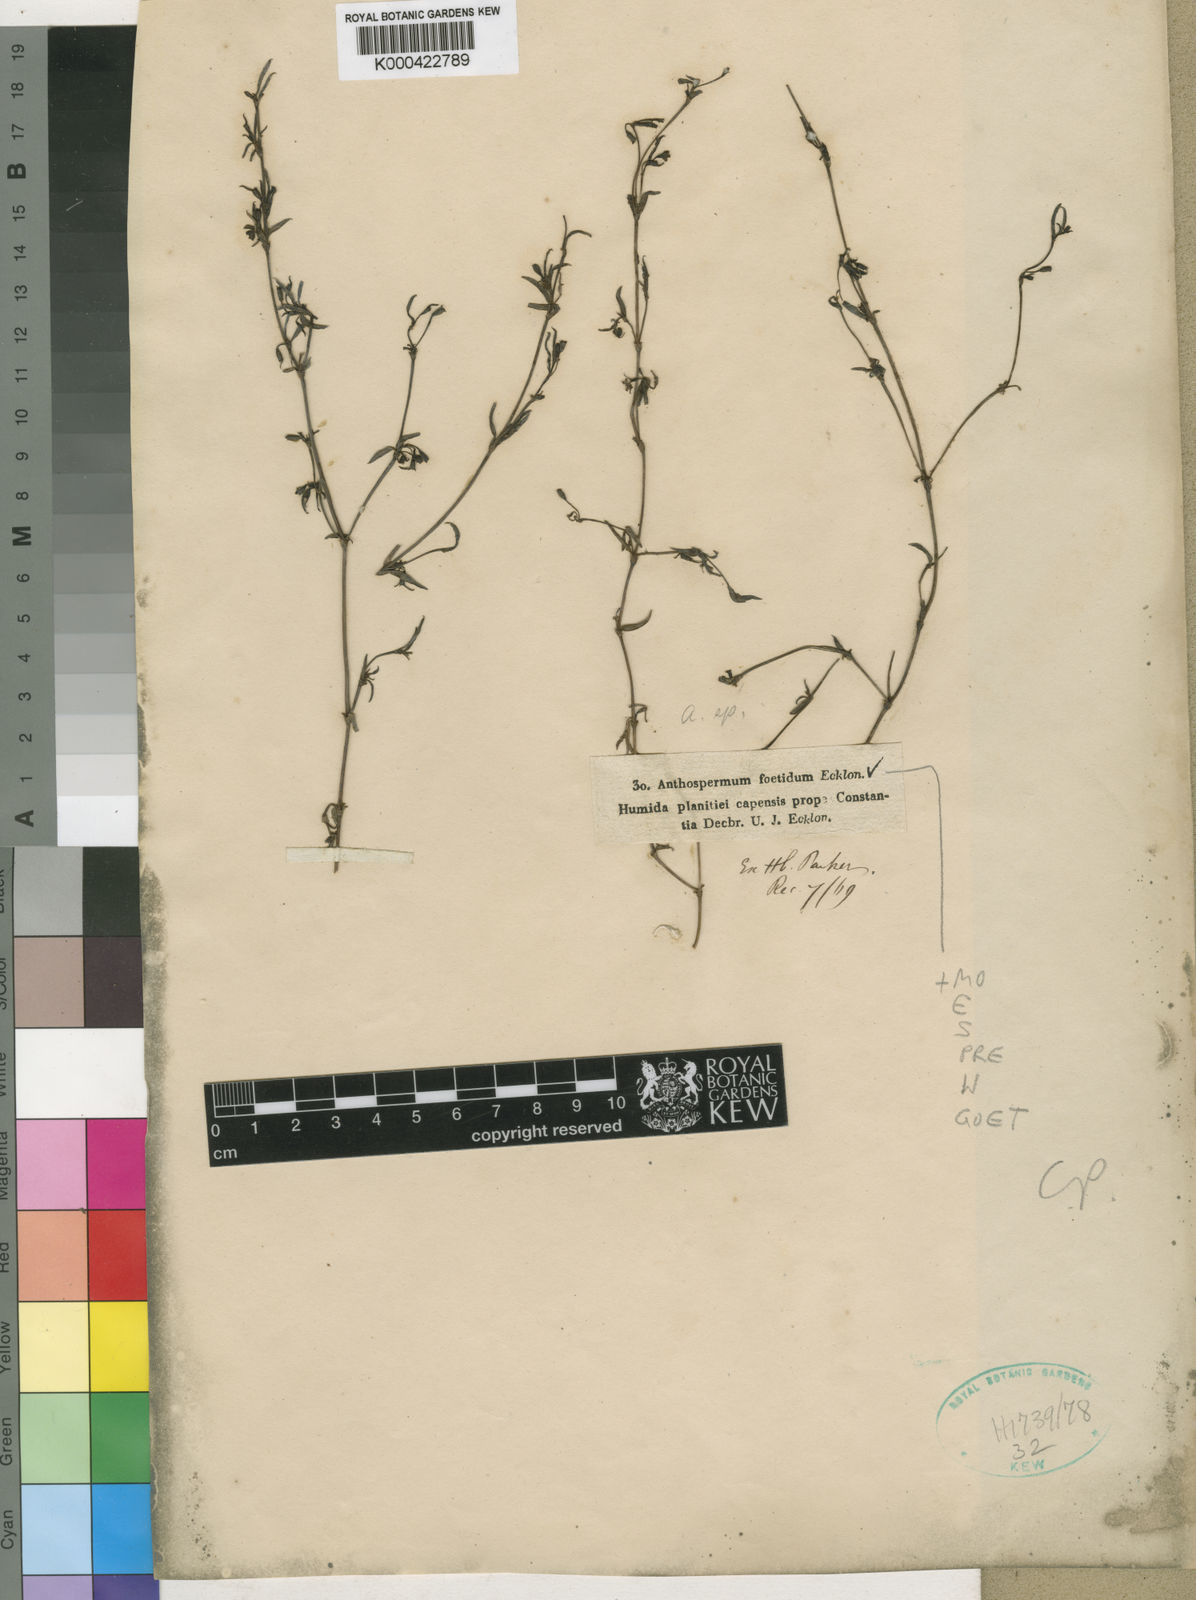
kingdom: Plantae
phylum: Tracheophyta
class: Magnoliopsida
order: Gentianales
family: Rubiaceae
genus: Carpacoce
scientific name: Carpacoce spermacocea
